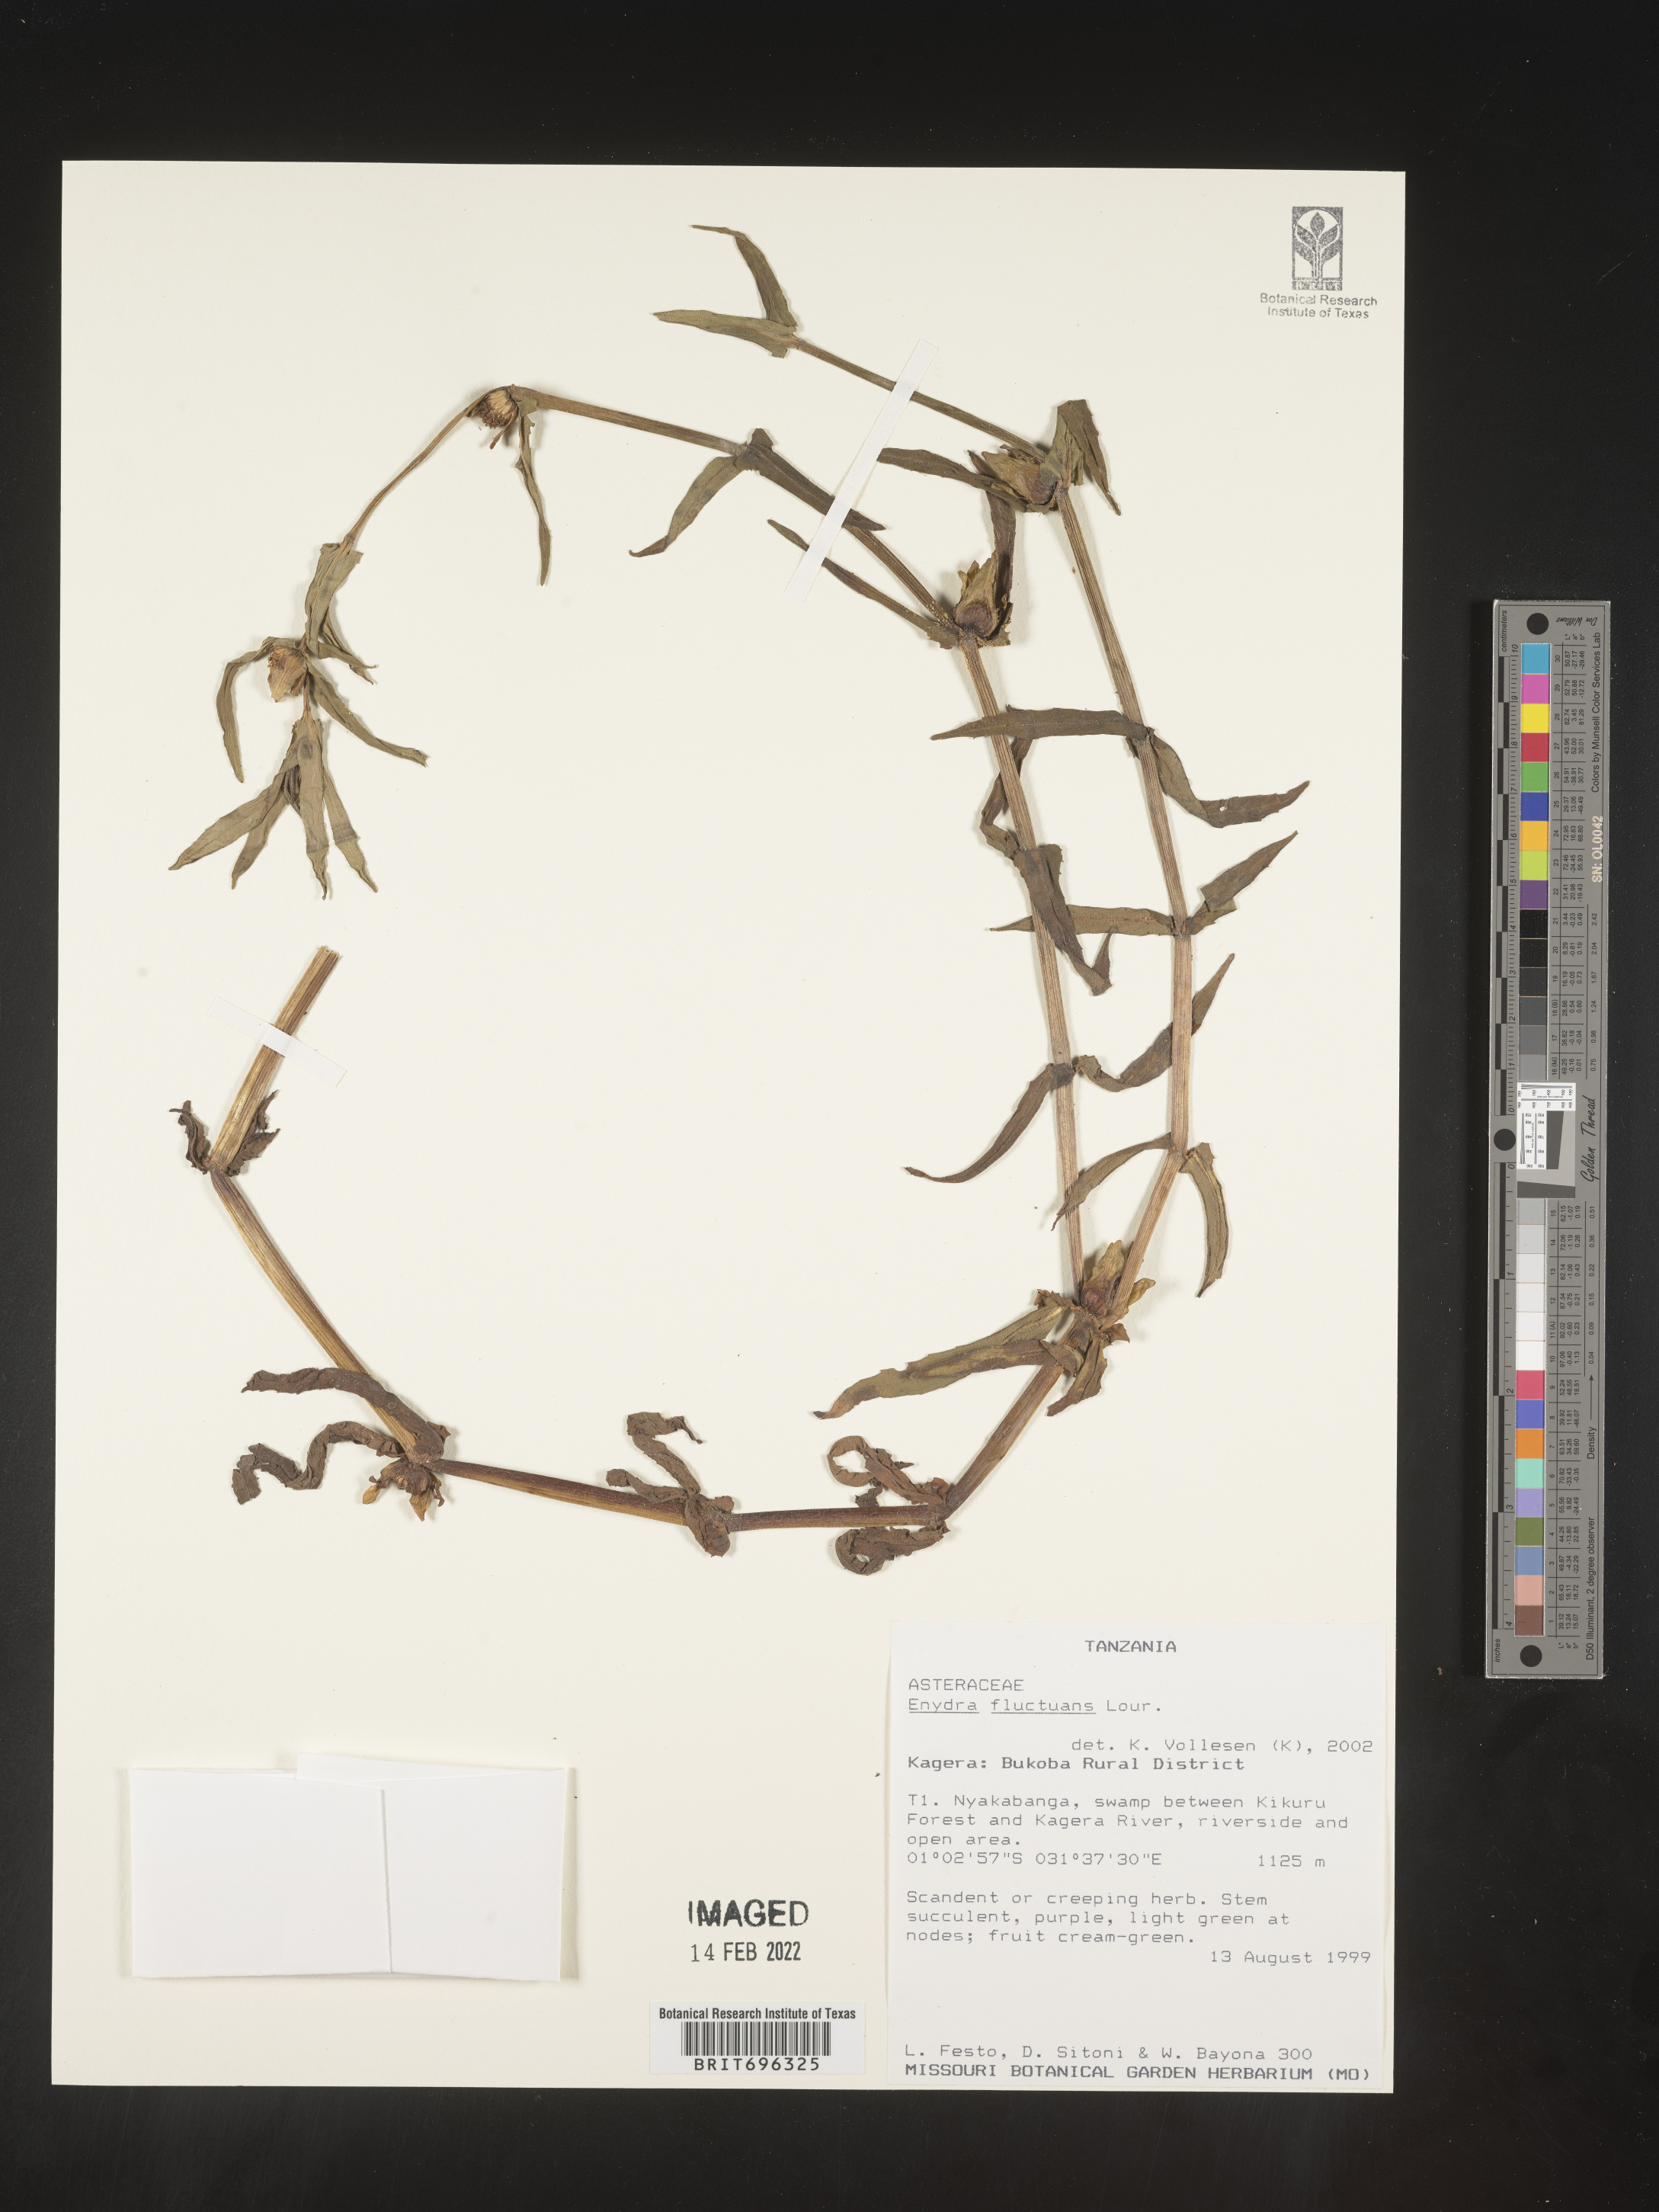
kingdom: Plantae
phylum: Tracheophyta
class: Magnoliopsida
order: Asterales
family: Asteraceae
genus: Enydra
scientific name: Enydra
